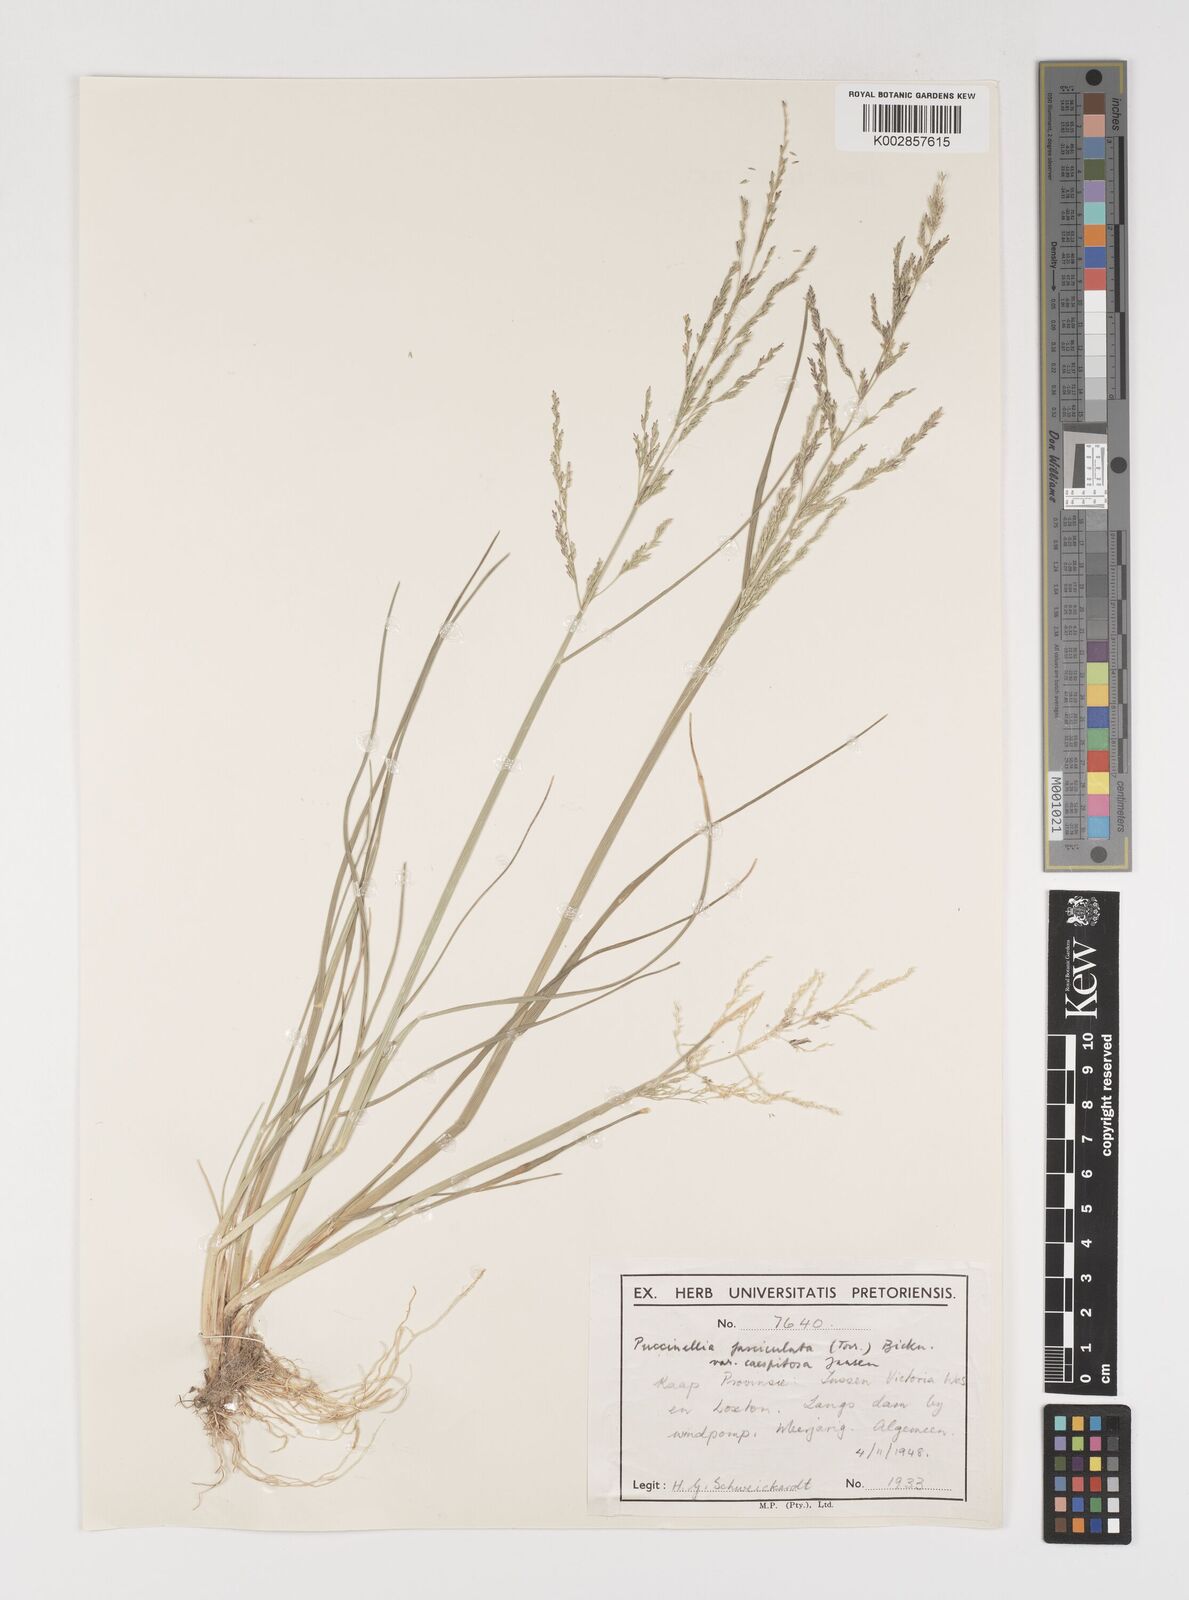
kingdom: Plantae
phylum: Tracheophyta
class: Liliopsida
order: Poales
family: Poaceae
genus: Puccinellia
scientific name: Puccinellia fasciculata
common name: Borrer's saltmarsh-grass
